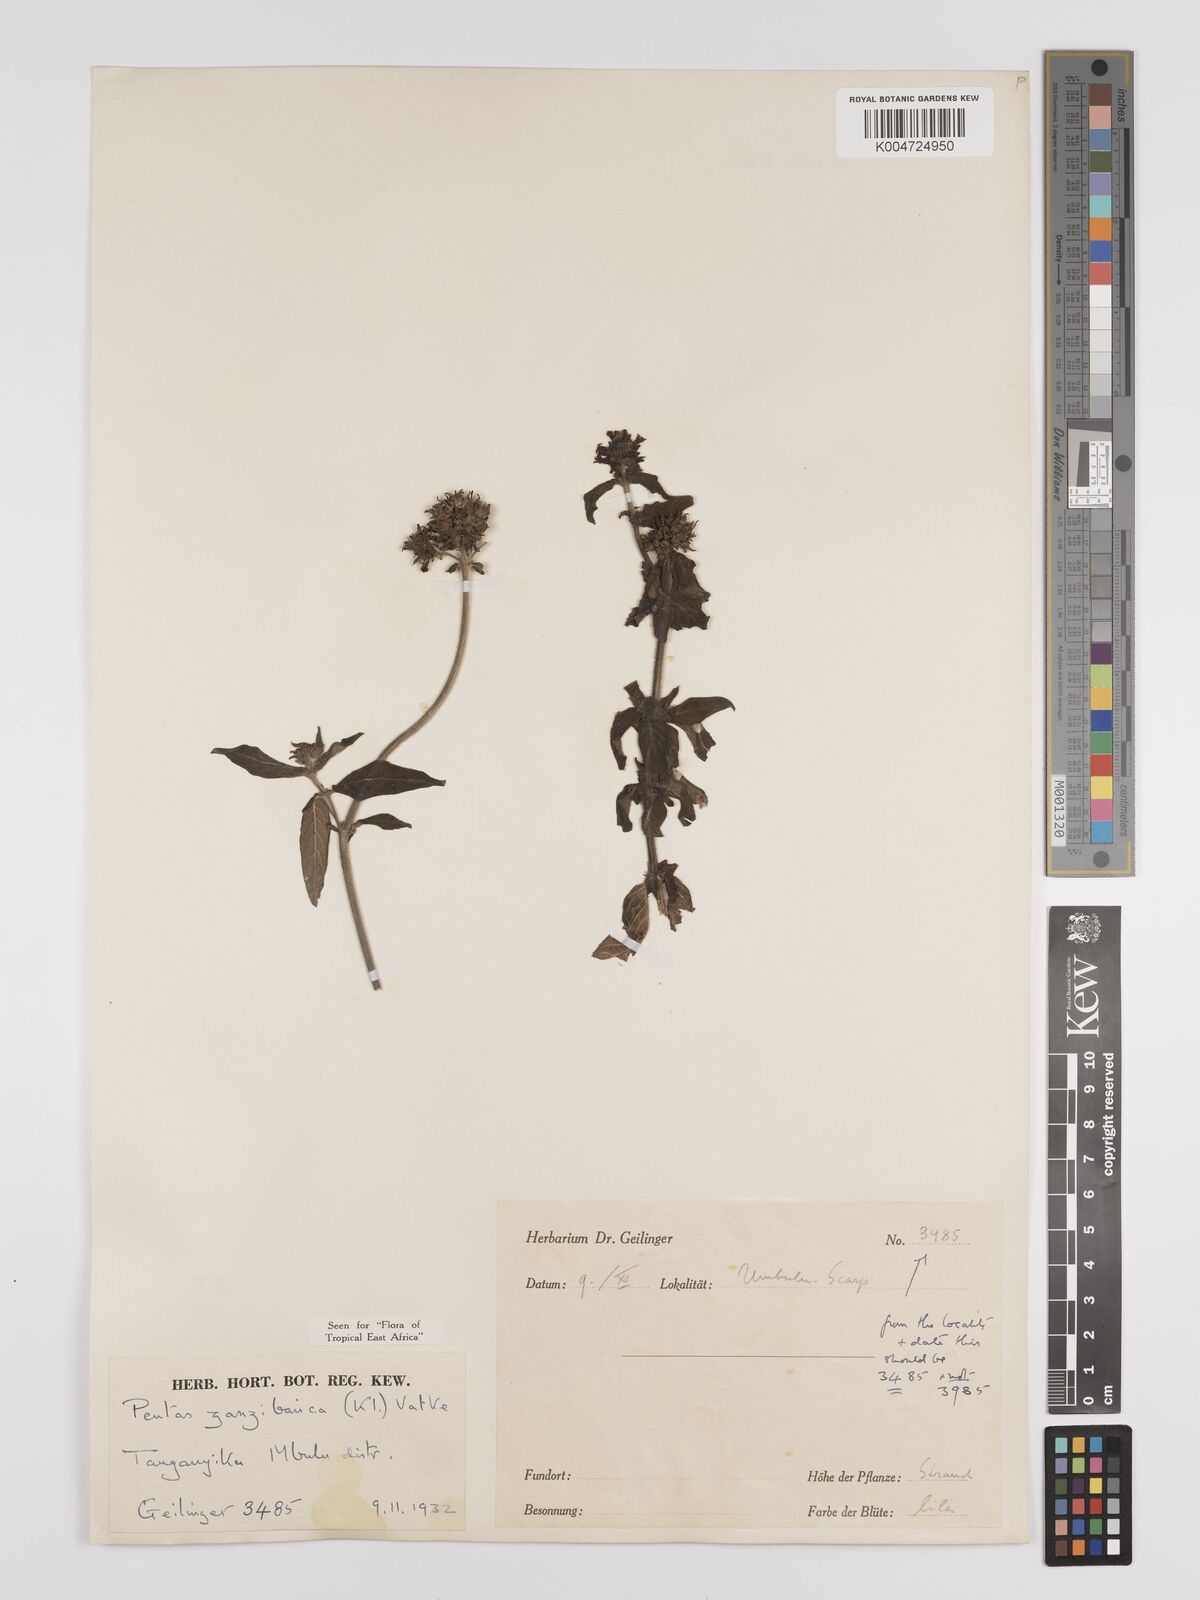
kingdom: Plantae
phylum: Tracheophyta
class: Magnoliopsida
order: Gentianales
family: Rubiaceae
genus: Pentas
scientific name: Pentas zanzibarica
